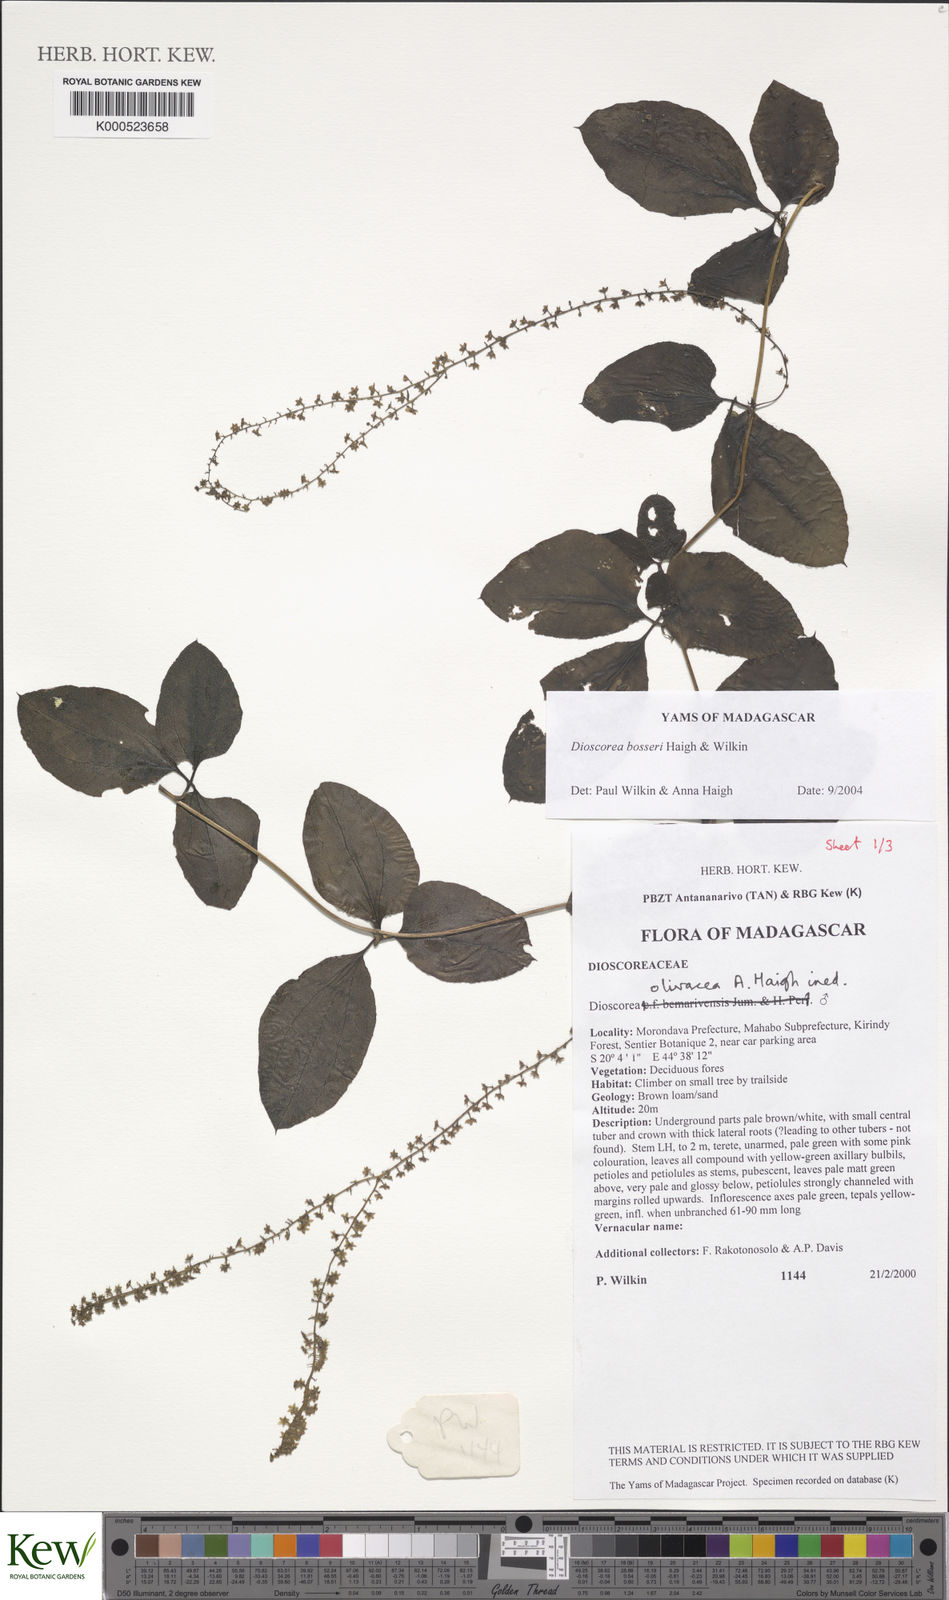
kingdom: Plantae
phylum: Tracheophyta
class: Liliopsida
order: Dioscoreales
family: Dioscoreaceae
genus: Dioscorea
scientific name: Dioscorea bosseri
